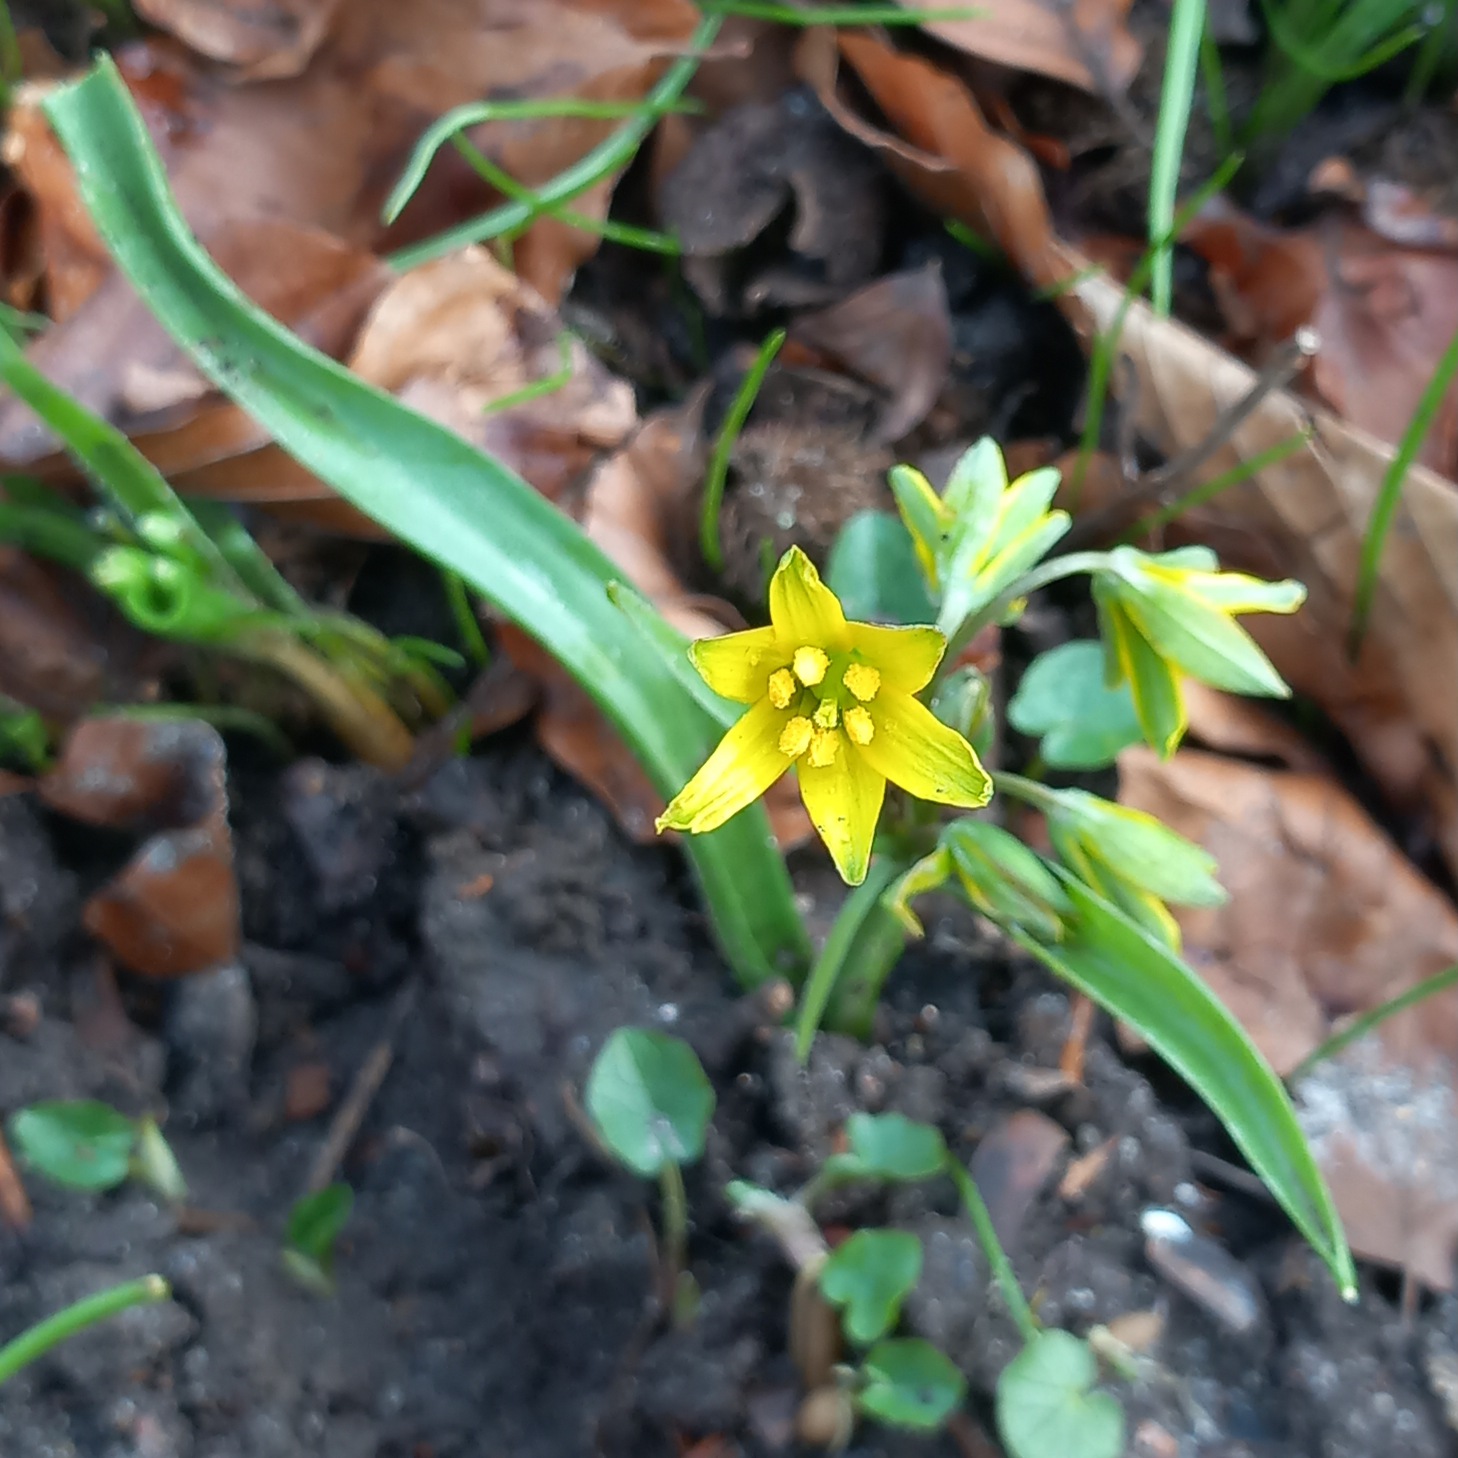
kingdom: Plantae
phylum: Tracheophyta
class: Liliopsida
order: Liliales
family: Liliaceae
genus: Gagea
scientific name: Gagea lutea
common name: Almindelig guldstjerne
